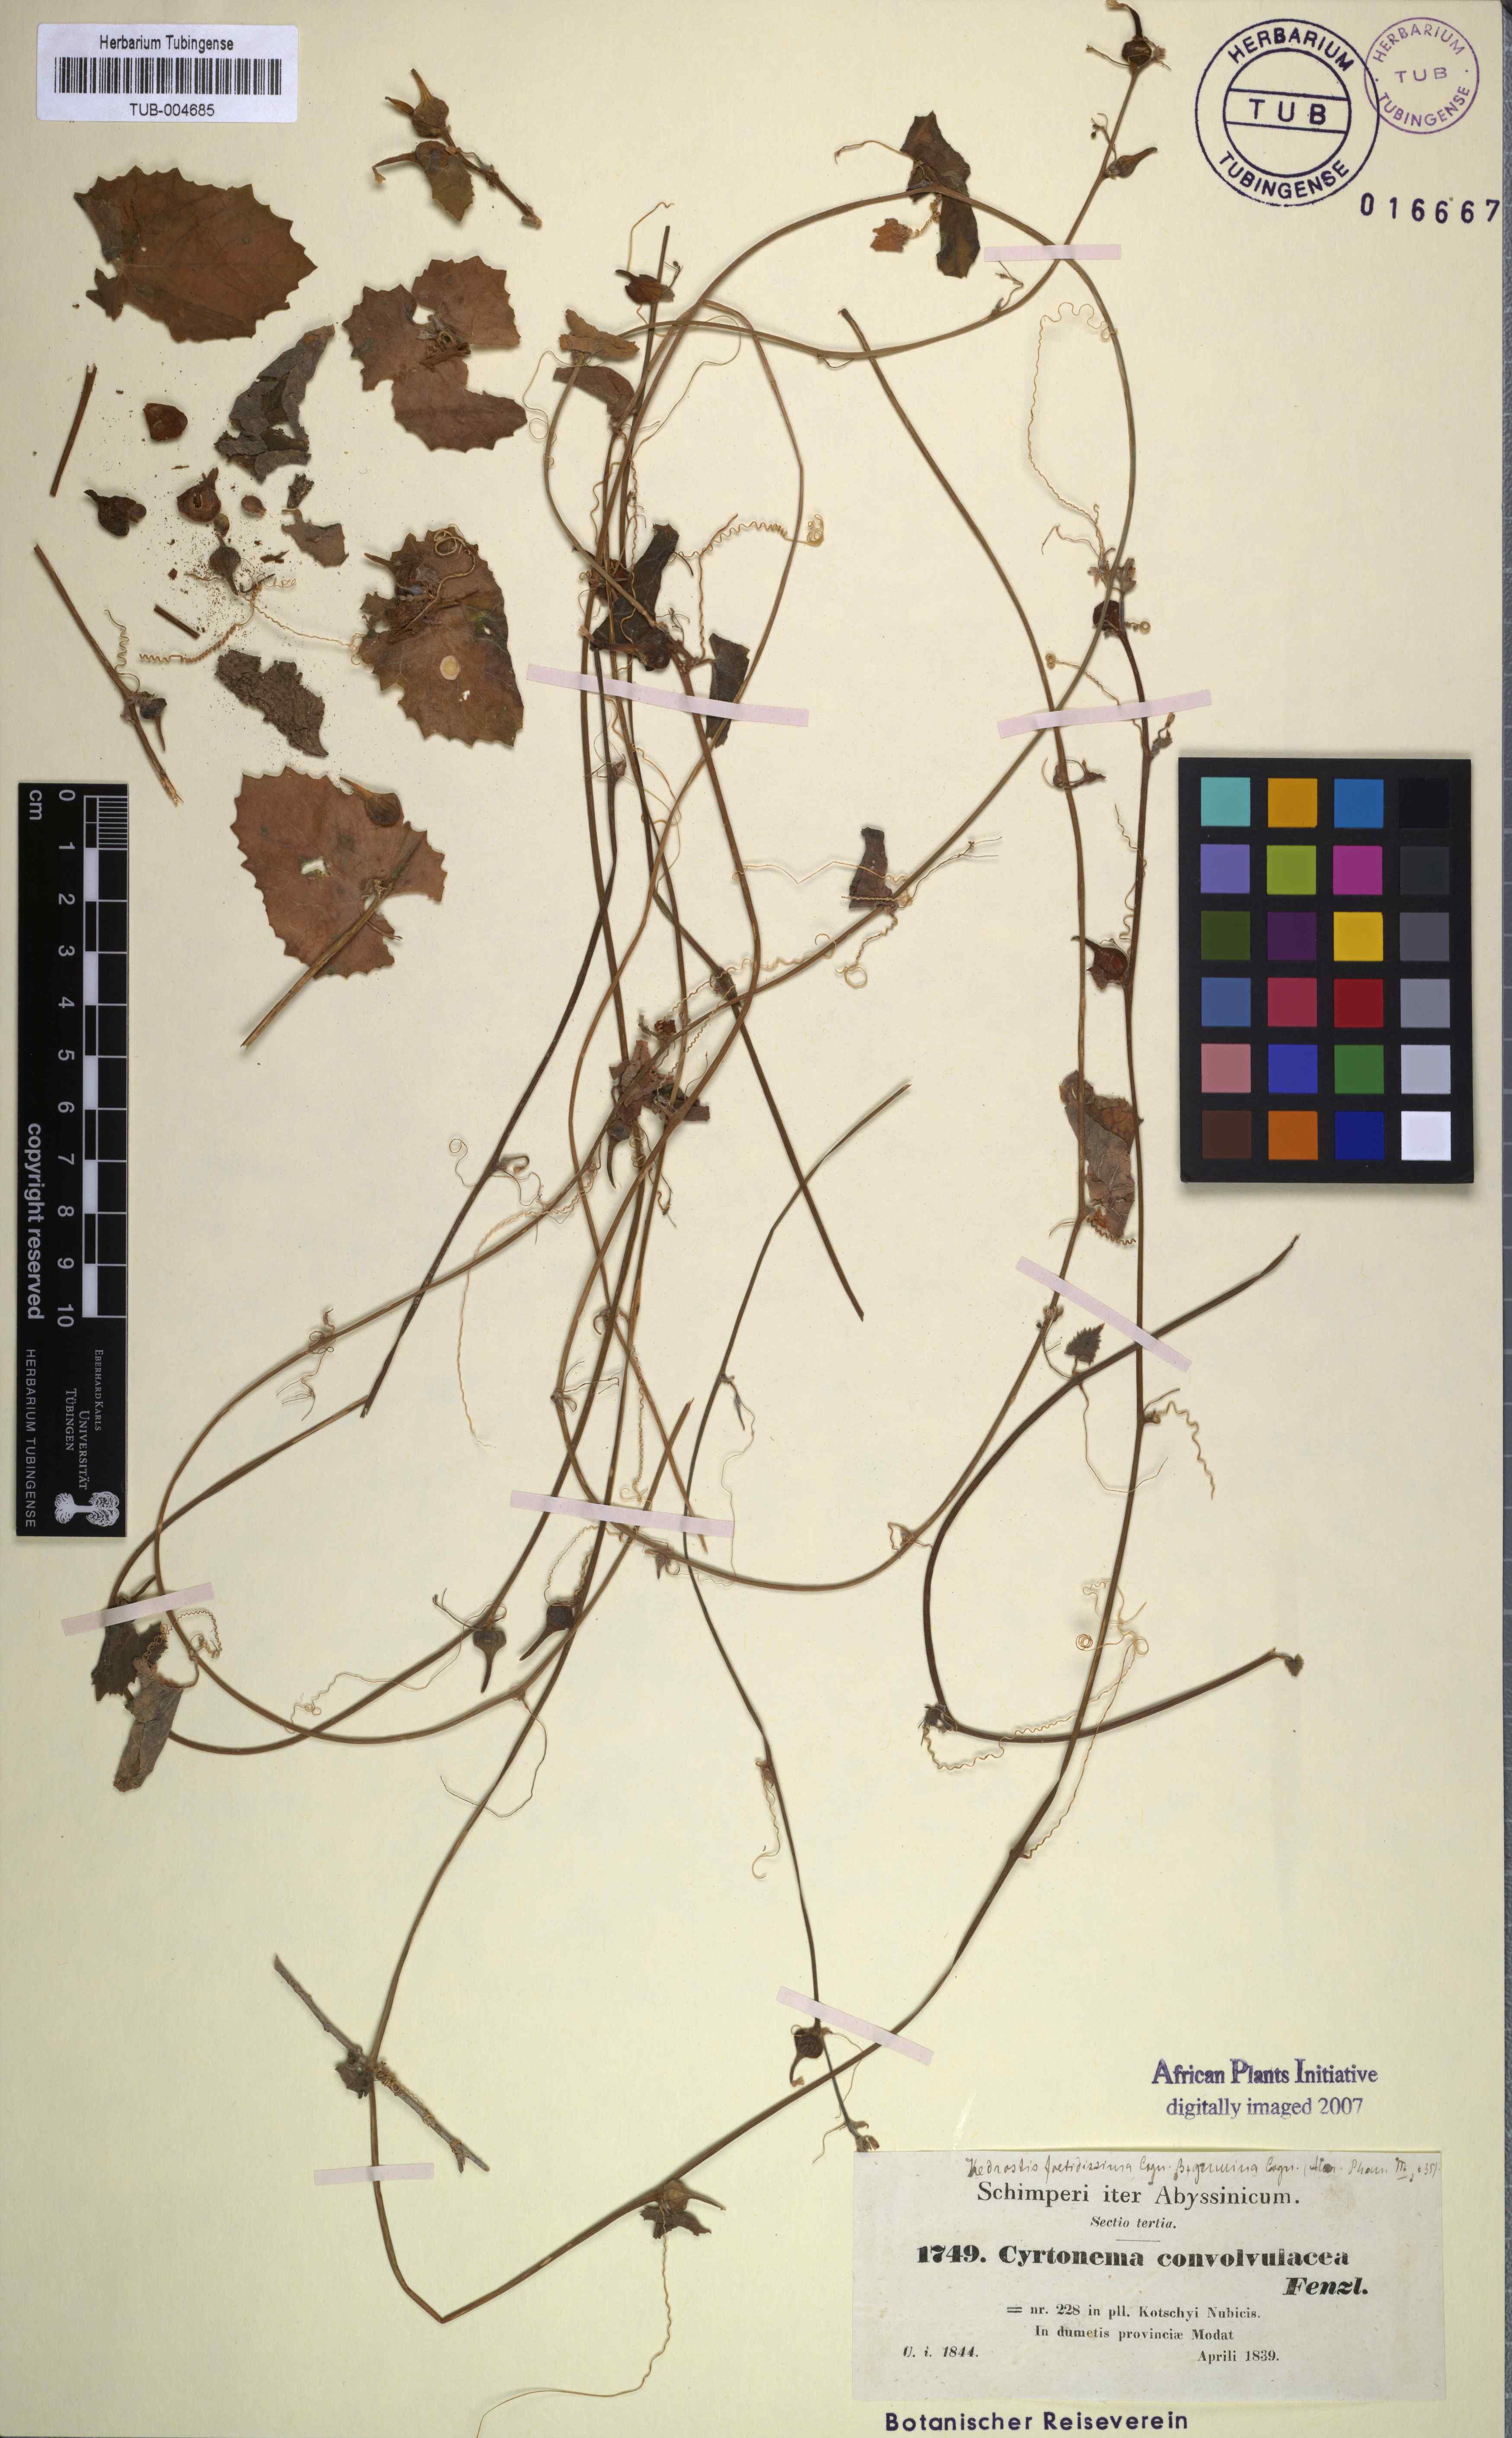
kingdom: Plantae
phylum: Tracheophyta
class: Magnoliopsida
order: Cucurbitales
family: Cucurbitaceae
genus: Kedrostis
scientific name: Kedrostis foetidissima
